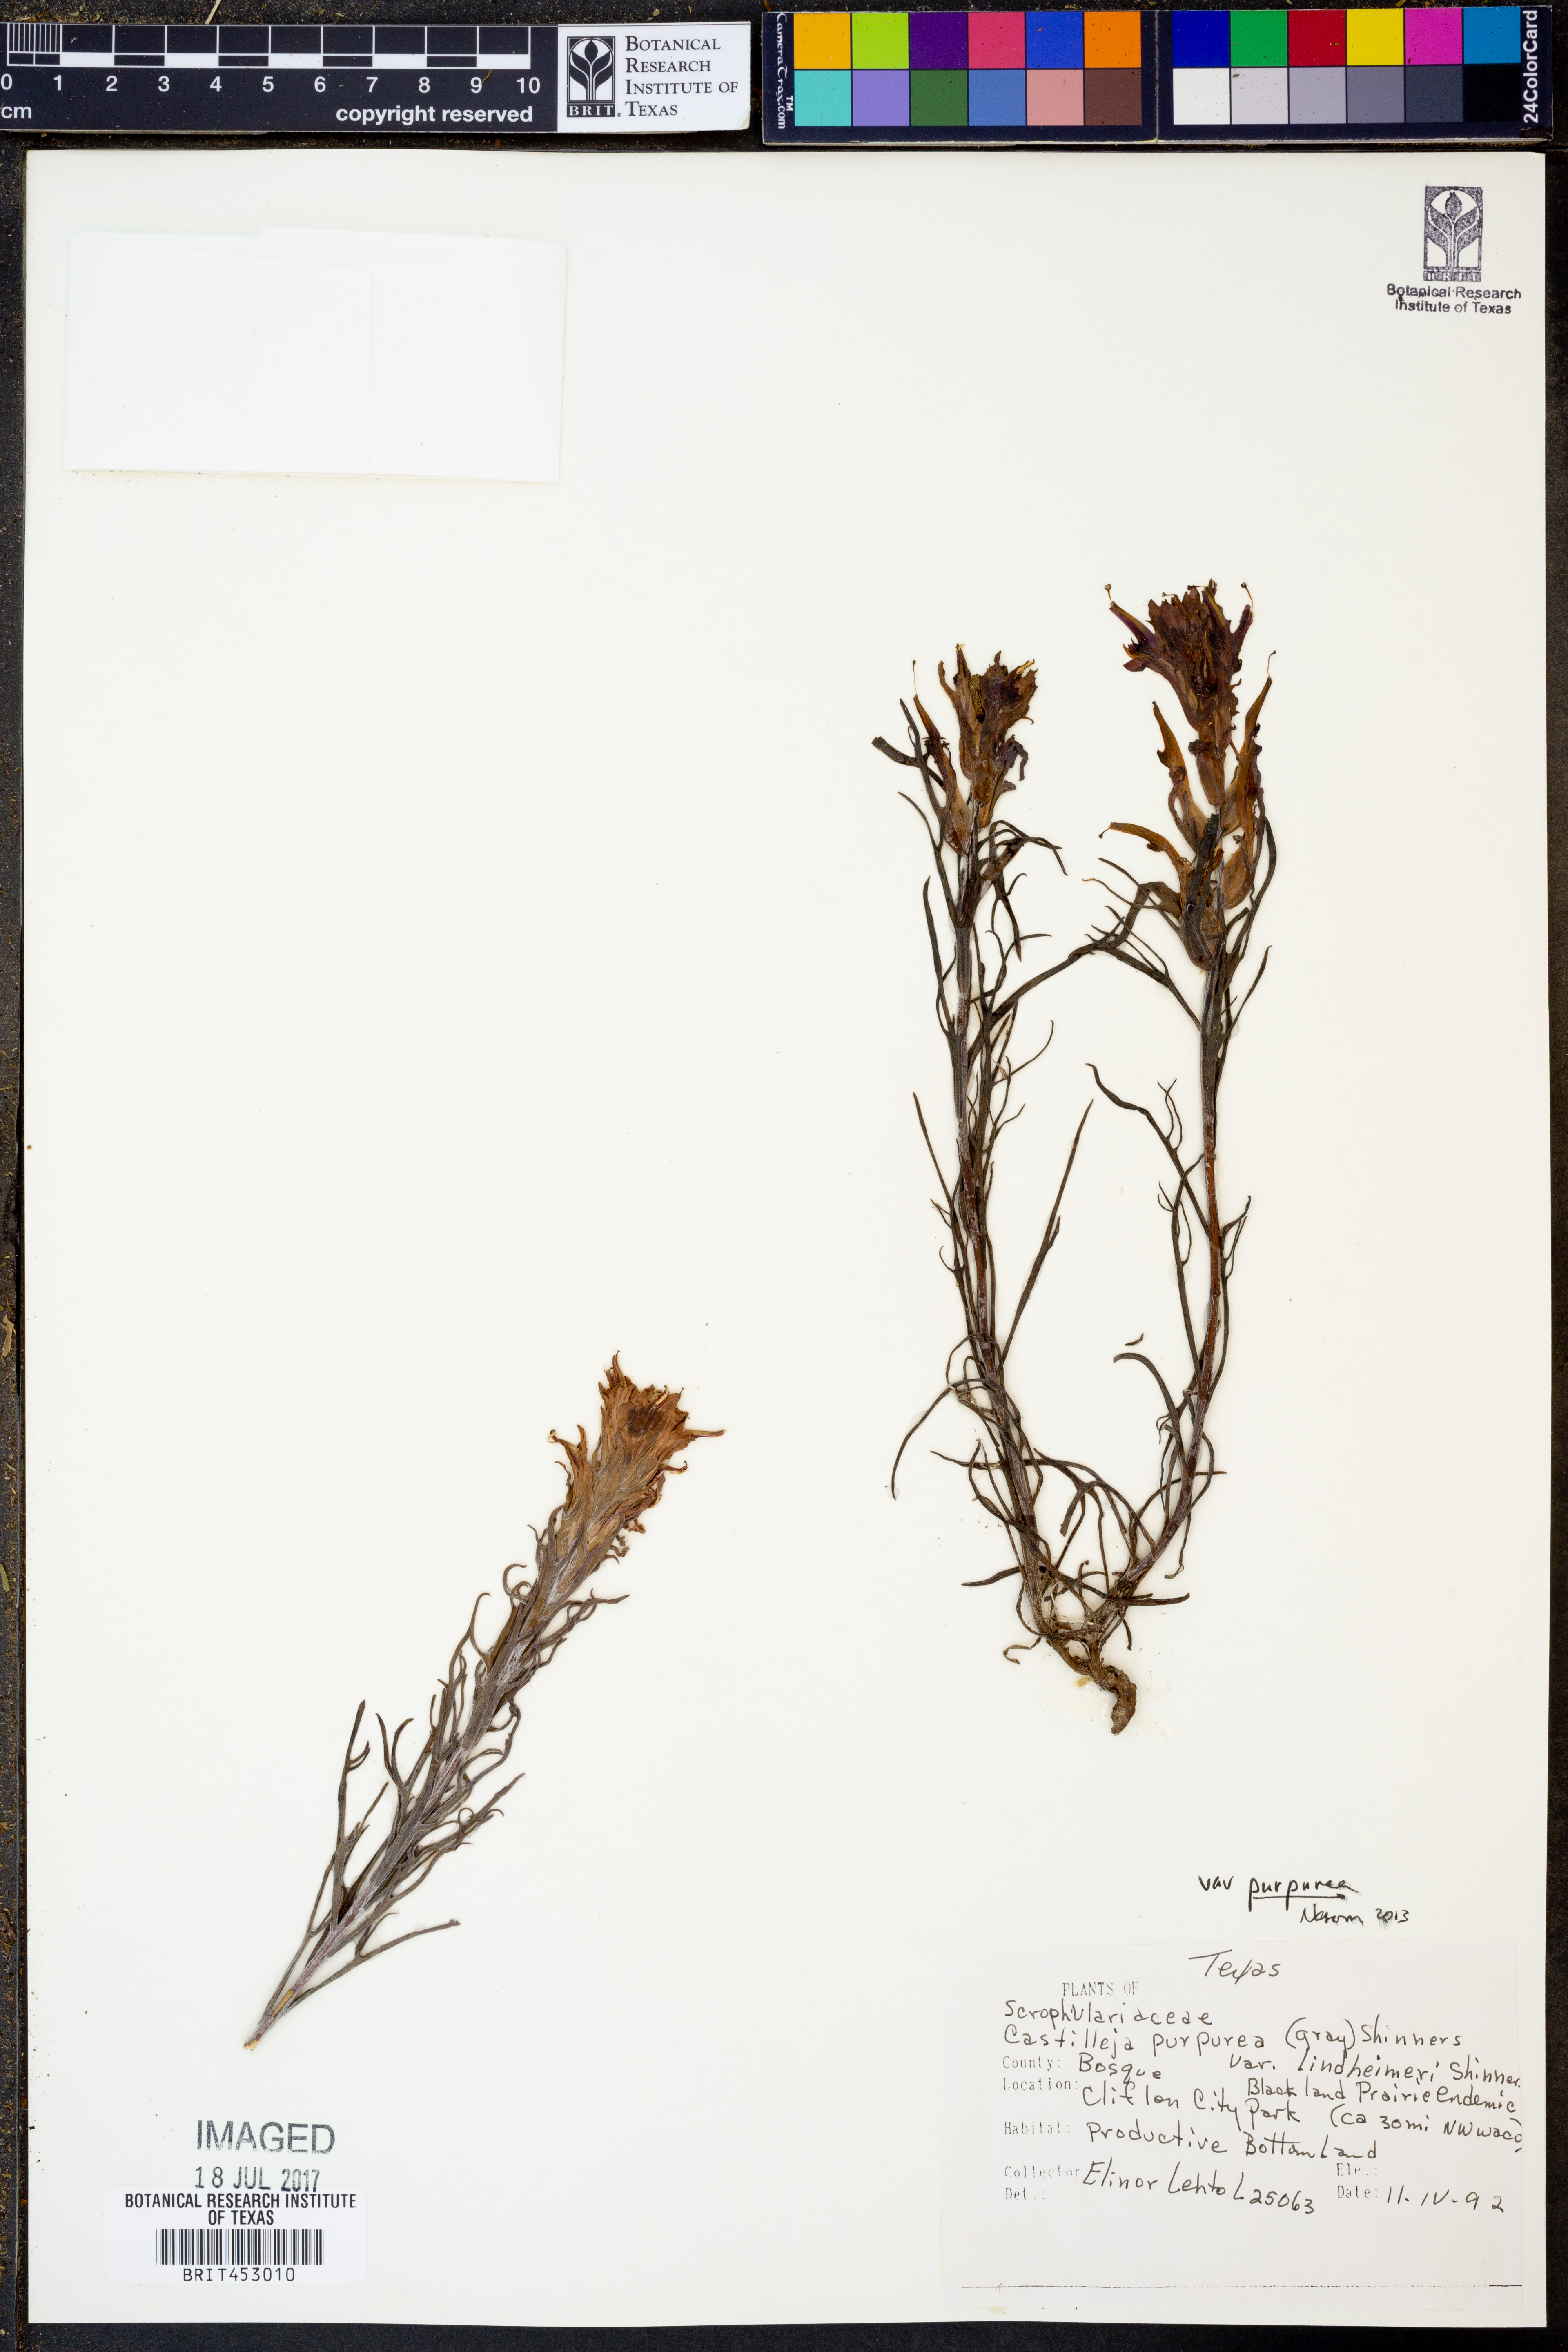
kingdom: Plantae
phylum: Tracheophyta
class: Magnoliopsida
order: Lamiales
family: Orobanchaceae
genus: Castilleja
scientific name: Castilleja purpurea
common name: Plains paintbrush
